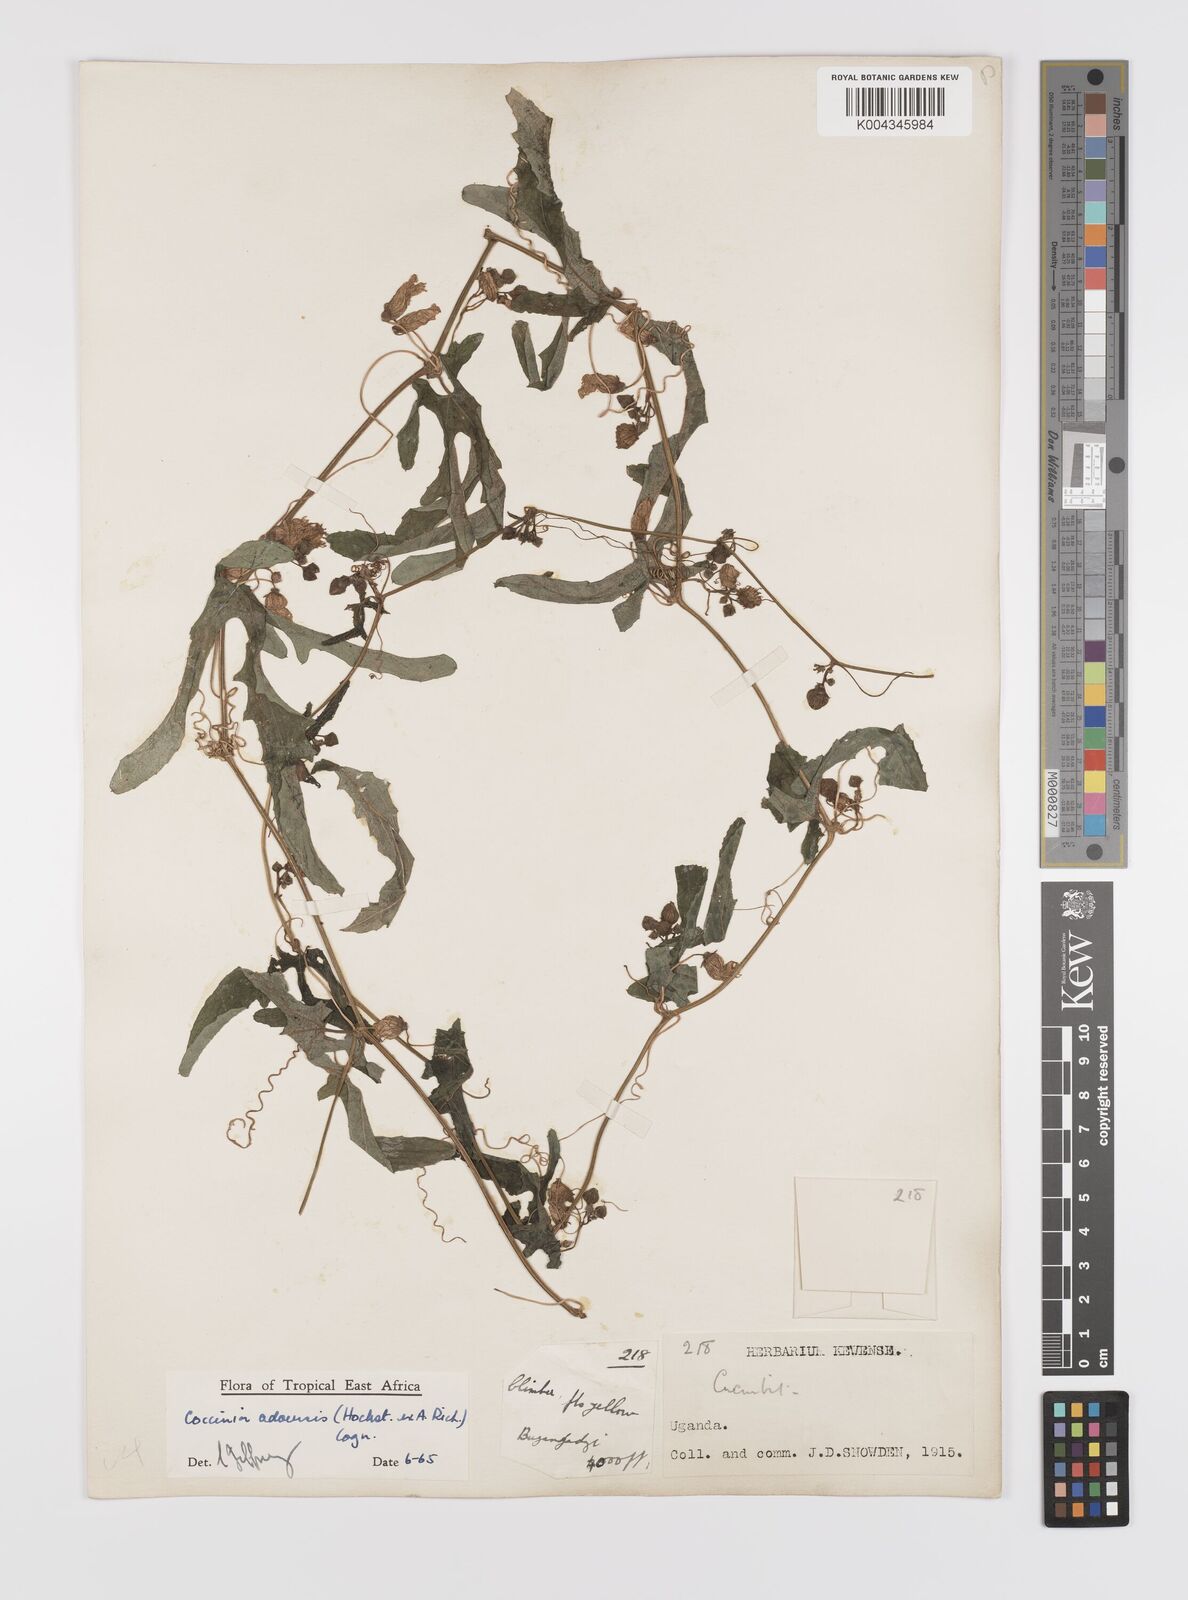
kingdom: Plantae
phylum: Tracheophyta
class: Magnoliopsida
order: Cucurbitales
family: Cucurbitaceae
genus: Coccinia
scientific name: Coccinia adoensis
